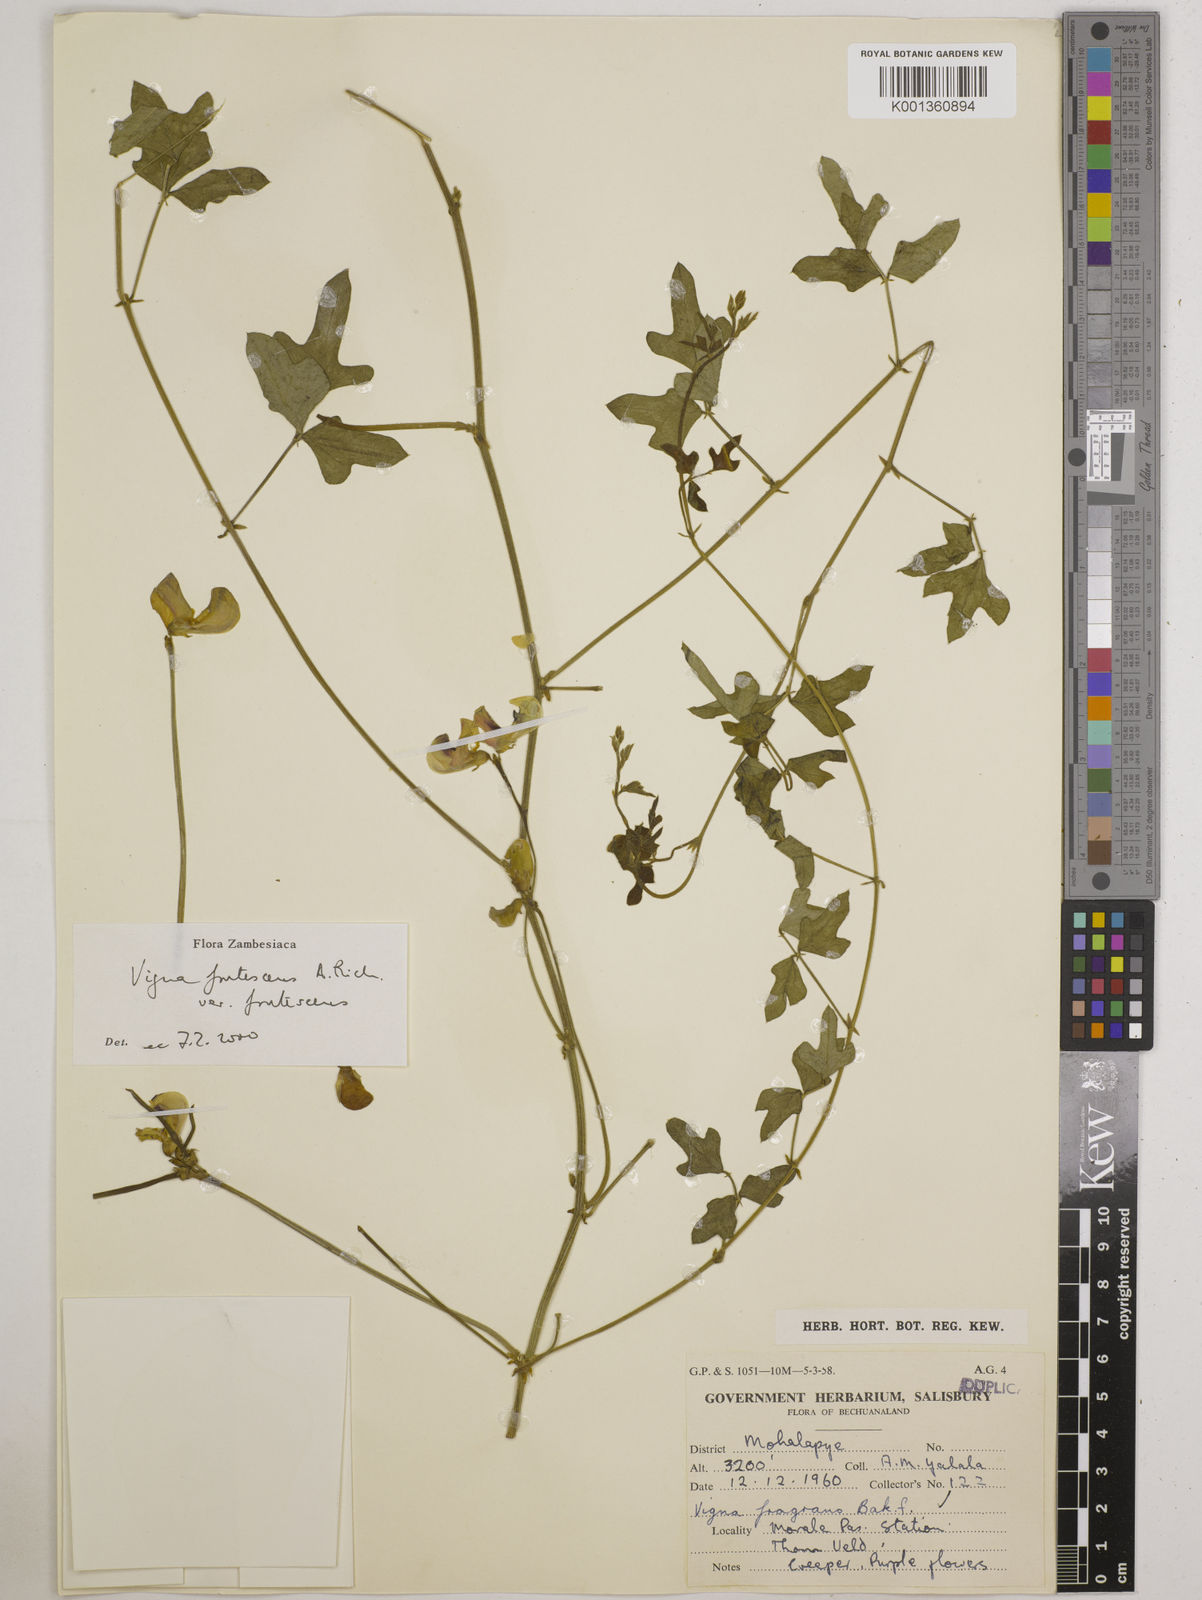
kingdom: Plantae
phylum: Tracheophyta
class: Magnoliopsida
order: Fabales
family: Fabaceae
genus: Vigna
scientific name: Vigna frutescens
